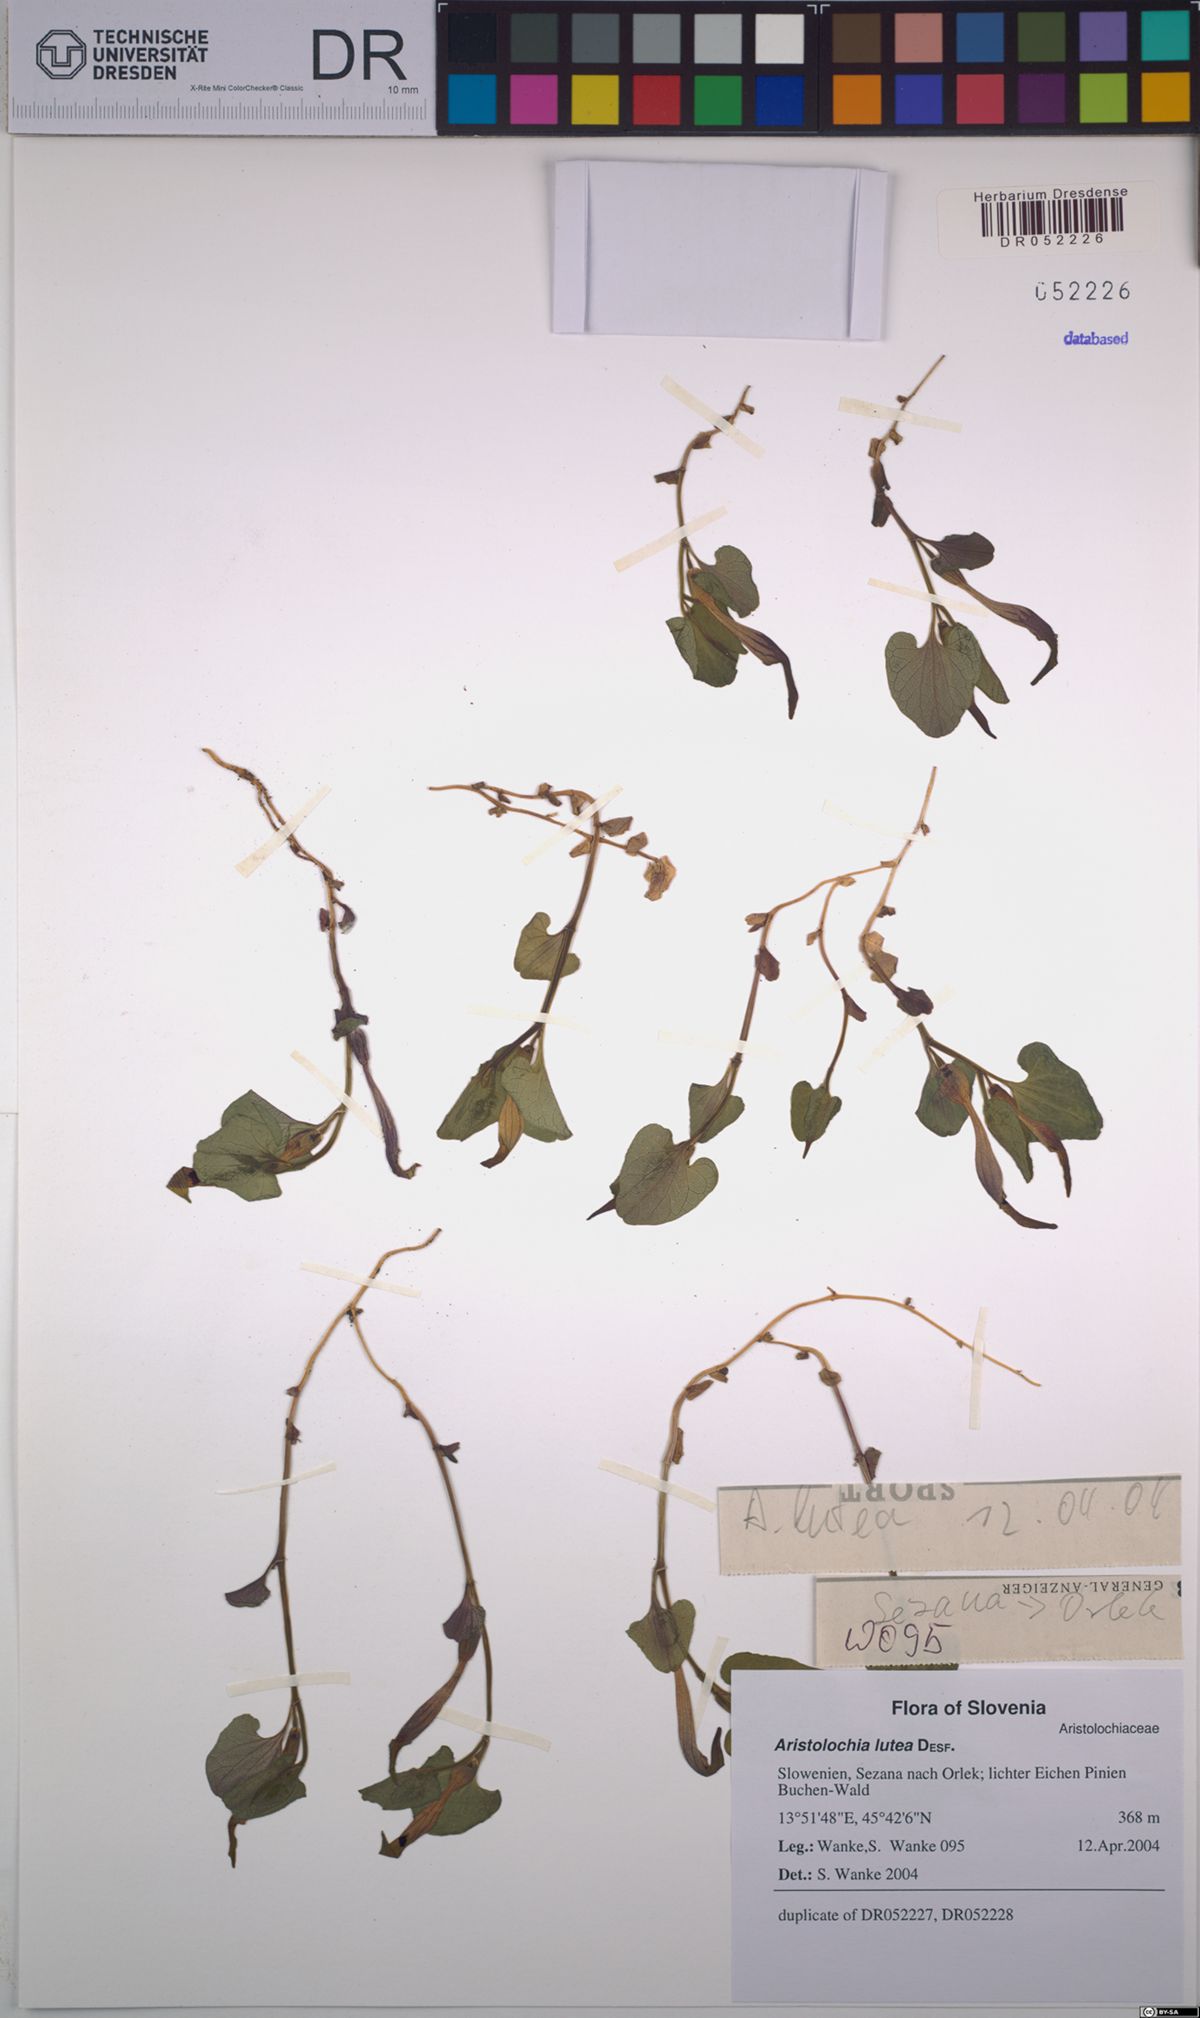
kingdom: Plantae
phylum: Tracheophyta
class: Magnoliopsida
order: Piperales
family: Aristolochiaceae
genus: Aristolochia
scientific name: Aristolochia lutea
